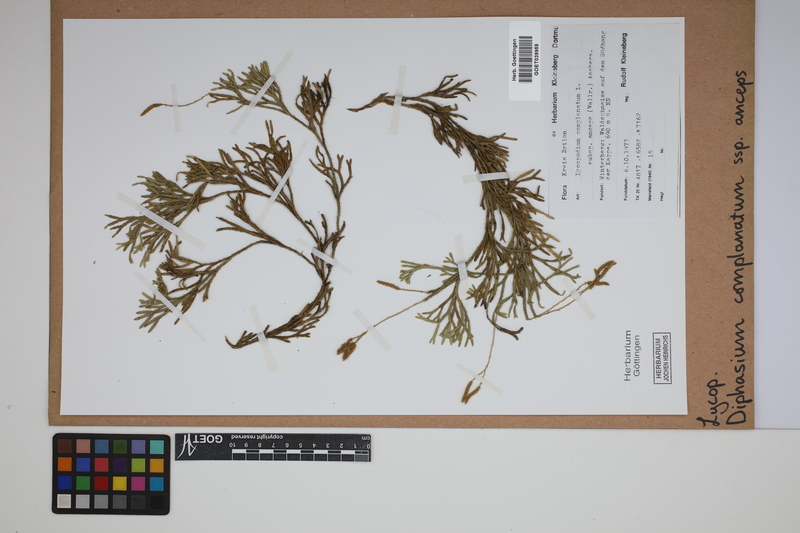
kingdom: Plantae
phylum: Tracheophyta
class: Lycopodiopsida
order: Lycopodiales
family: Lycopodiaceae
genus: Diphasiastrum
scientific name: Diphasiastrum complanatum
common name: Northern running-pine
